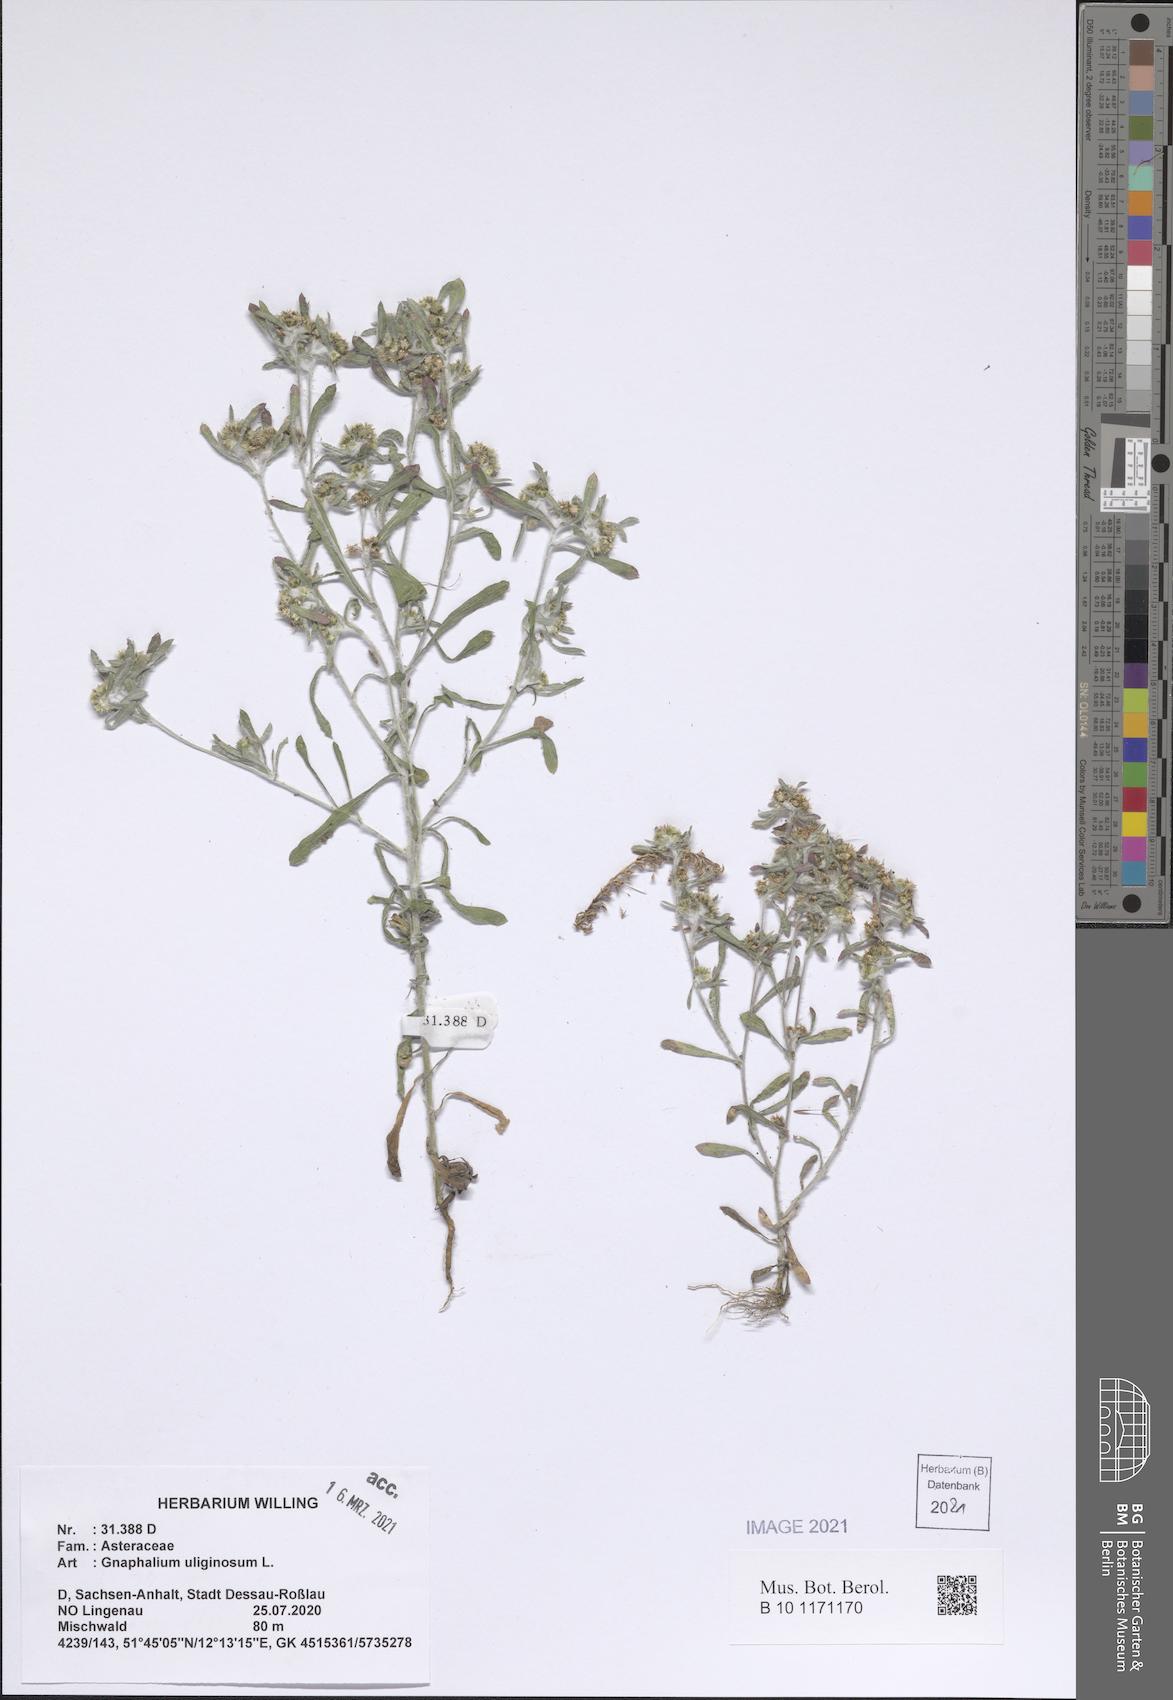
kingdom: Plantae
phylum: Tracheophyta
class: Magnoliopsida
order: Asterales
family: Asteraceae
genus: Gnaphalium
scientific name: Gnaphalium uliginosum
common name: Marsh cudweed
